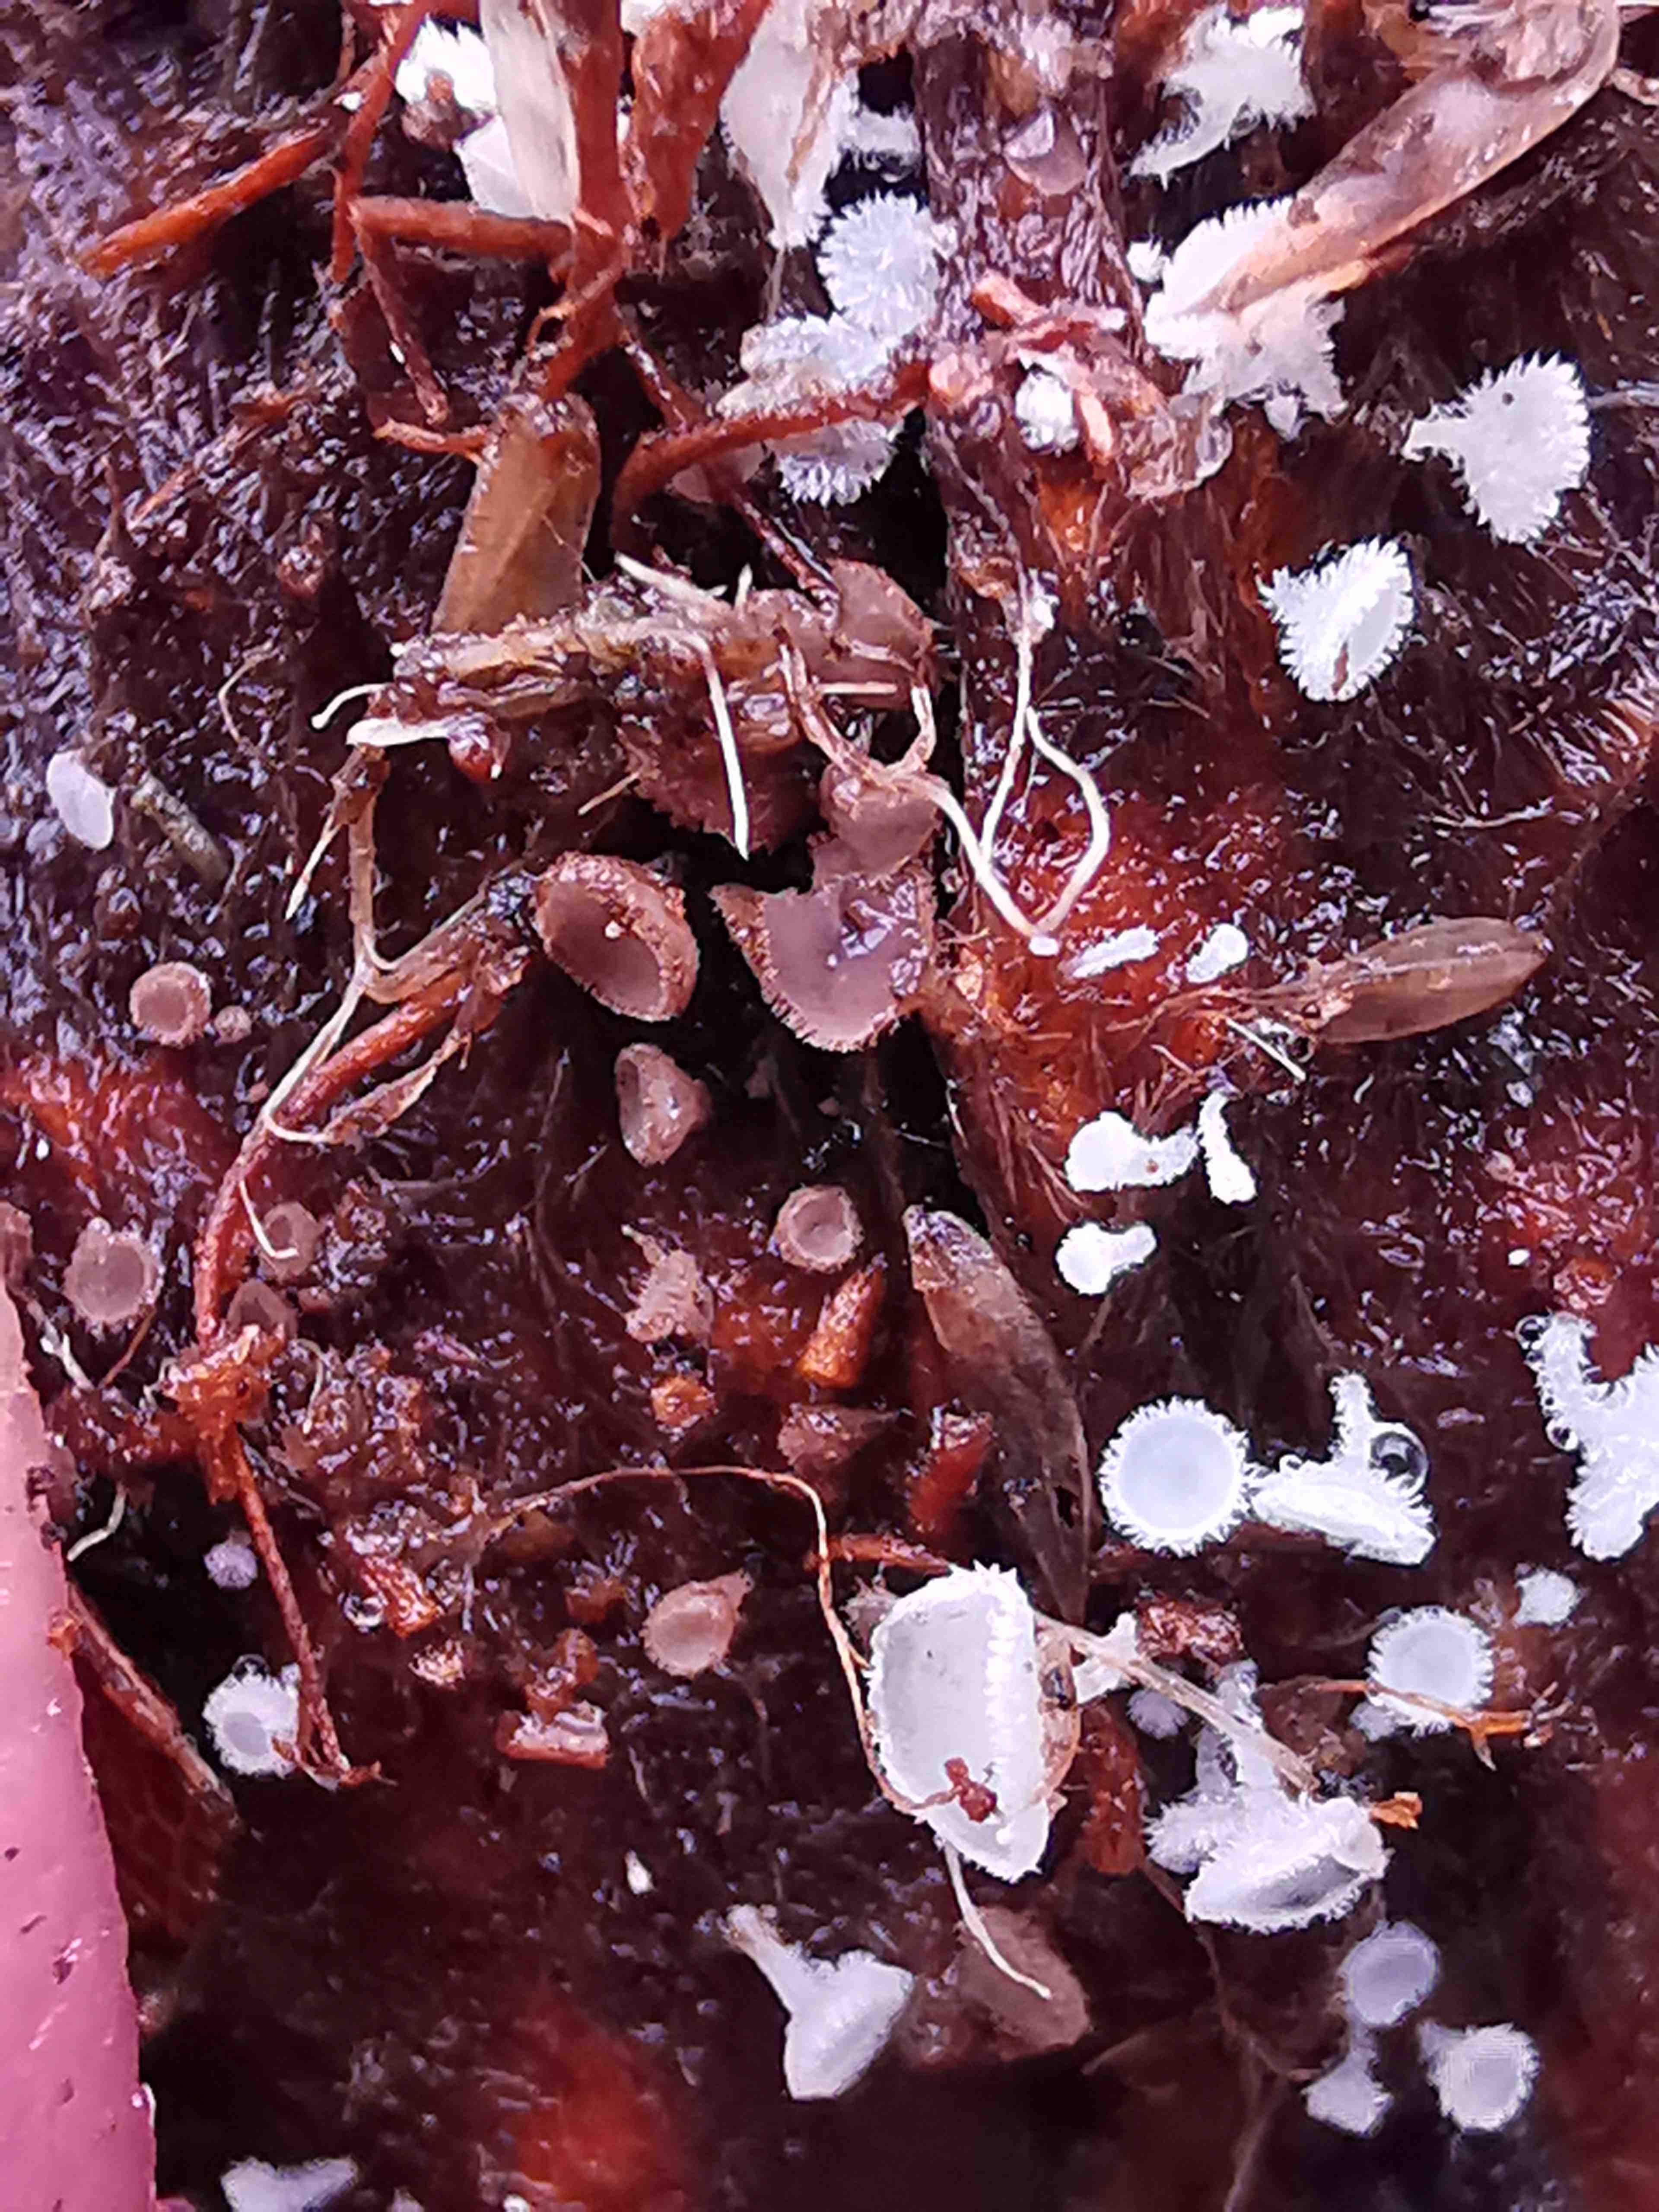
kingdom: Fungi
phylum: Ascomycota
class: Leotiomycetes
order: Helotiales
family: Lachnaceae
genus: Brunnipila
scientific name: Brunnipila fuscescens
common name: bøge-frynseskive
